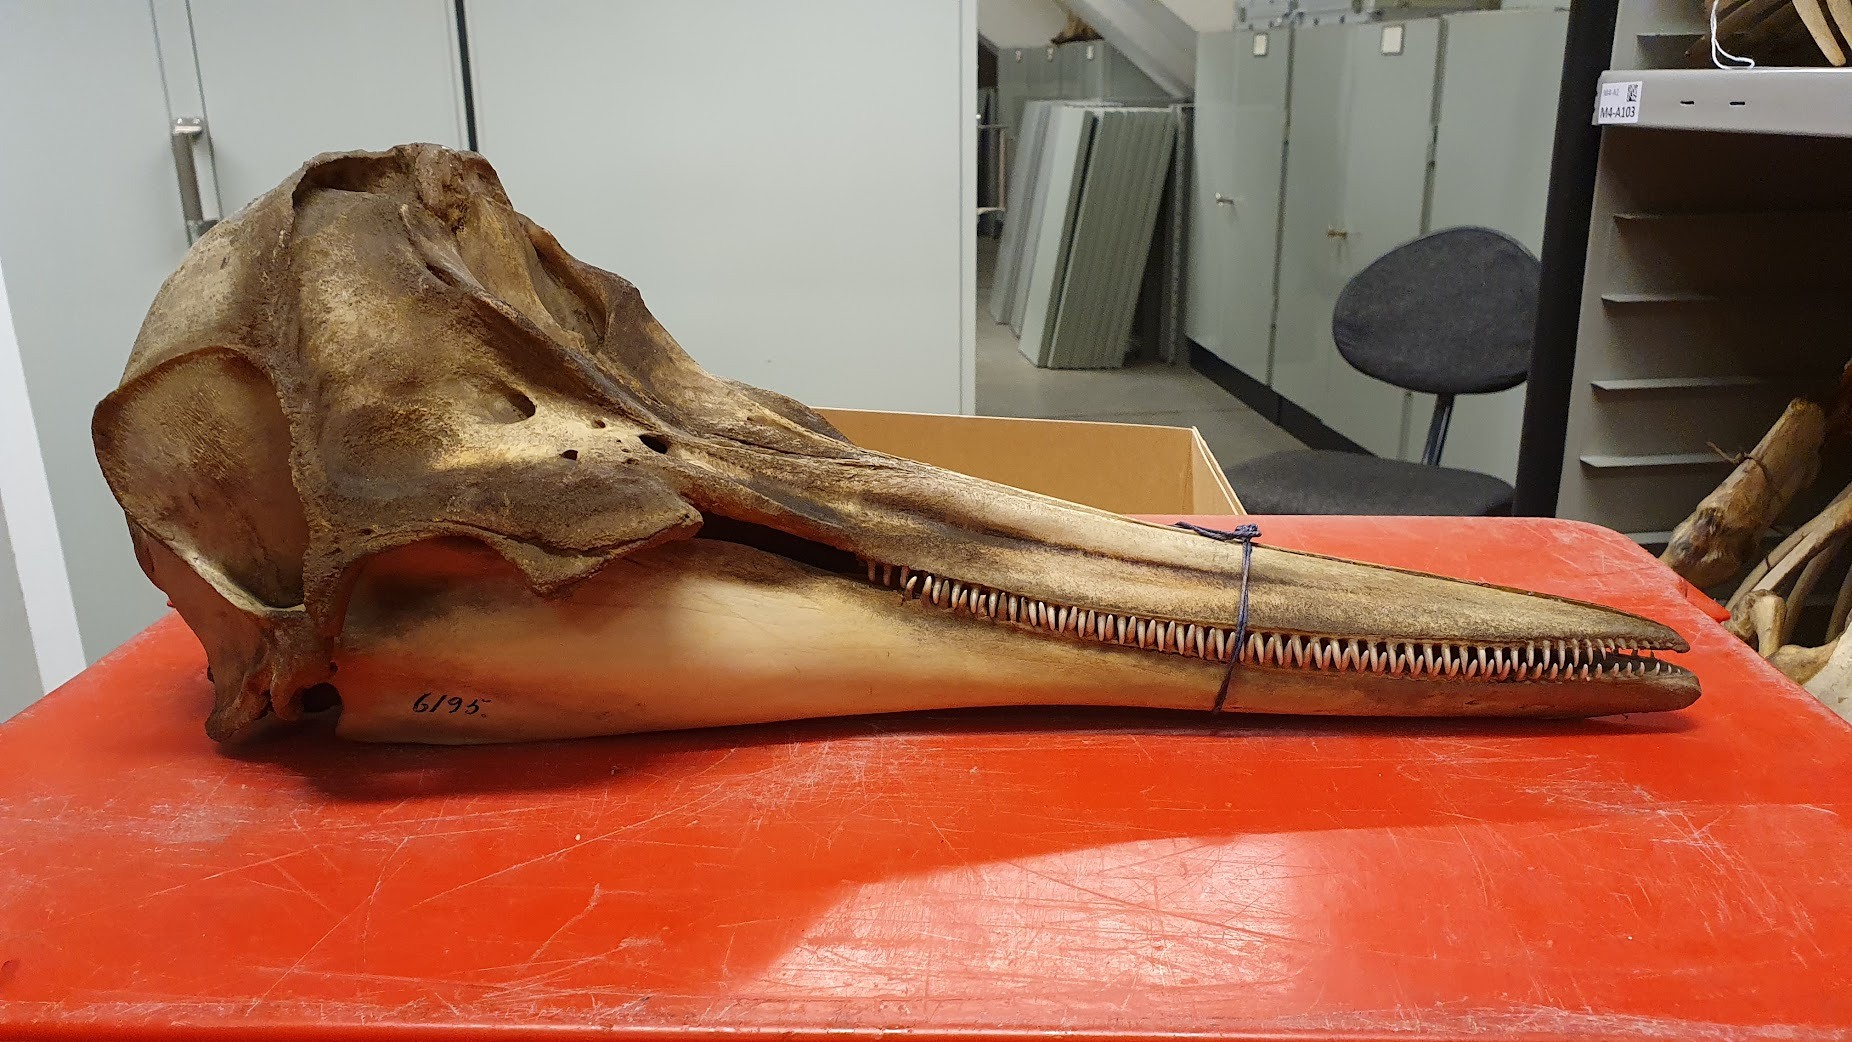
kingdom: Animalia
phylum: Chordata
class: Mammalia
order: Cetacea
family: Delphinidae
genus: Delphinus
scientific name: Delphinus delphis
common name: Common dolphin
